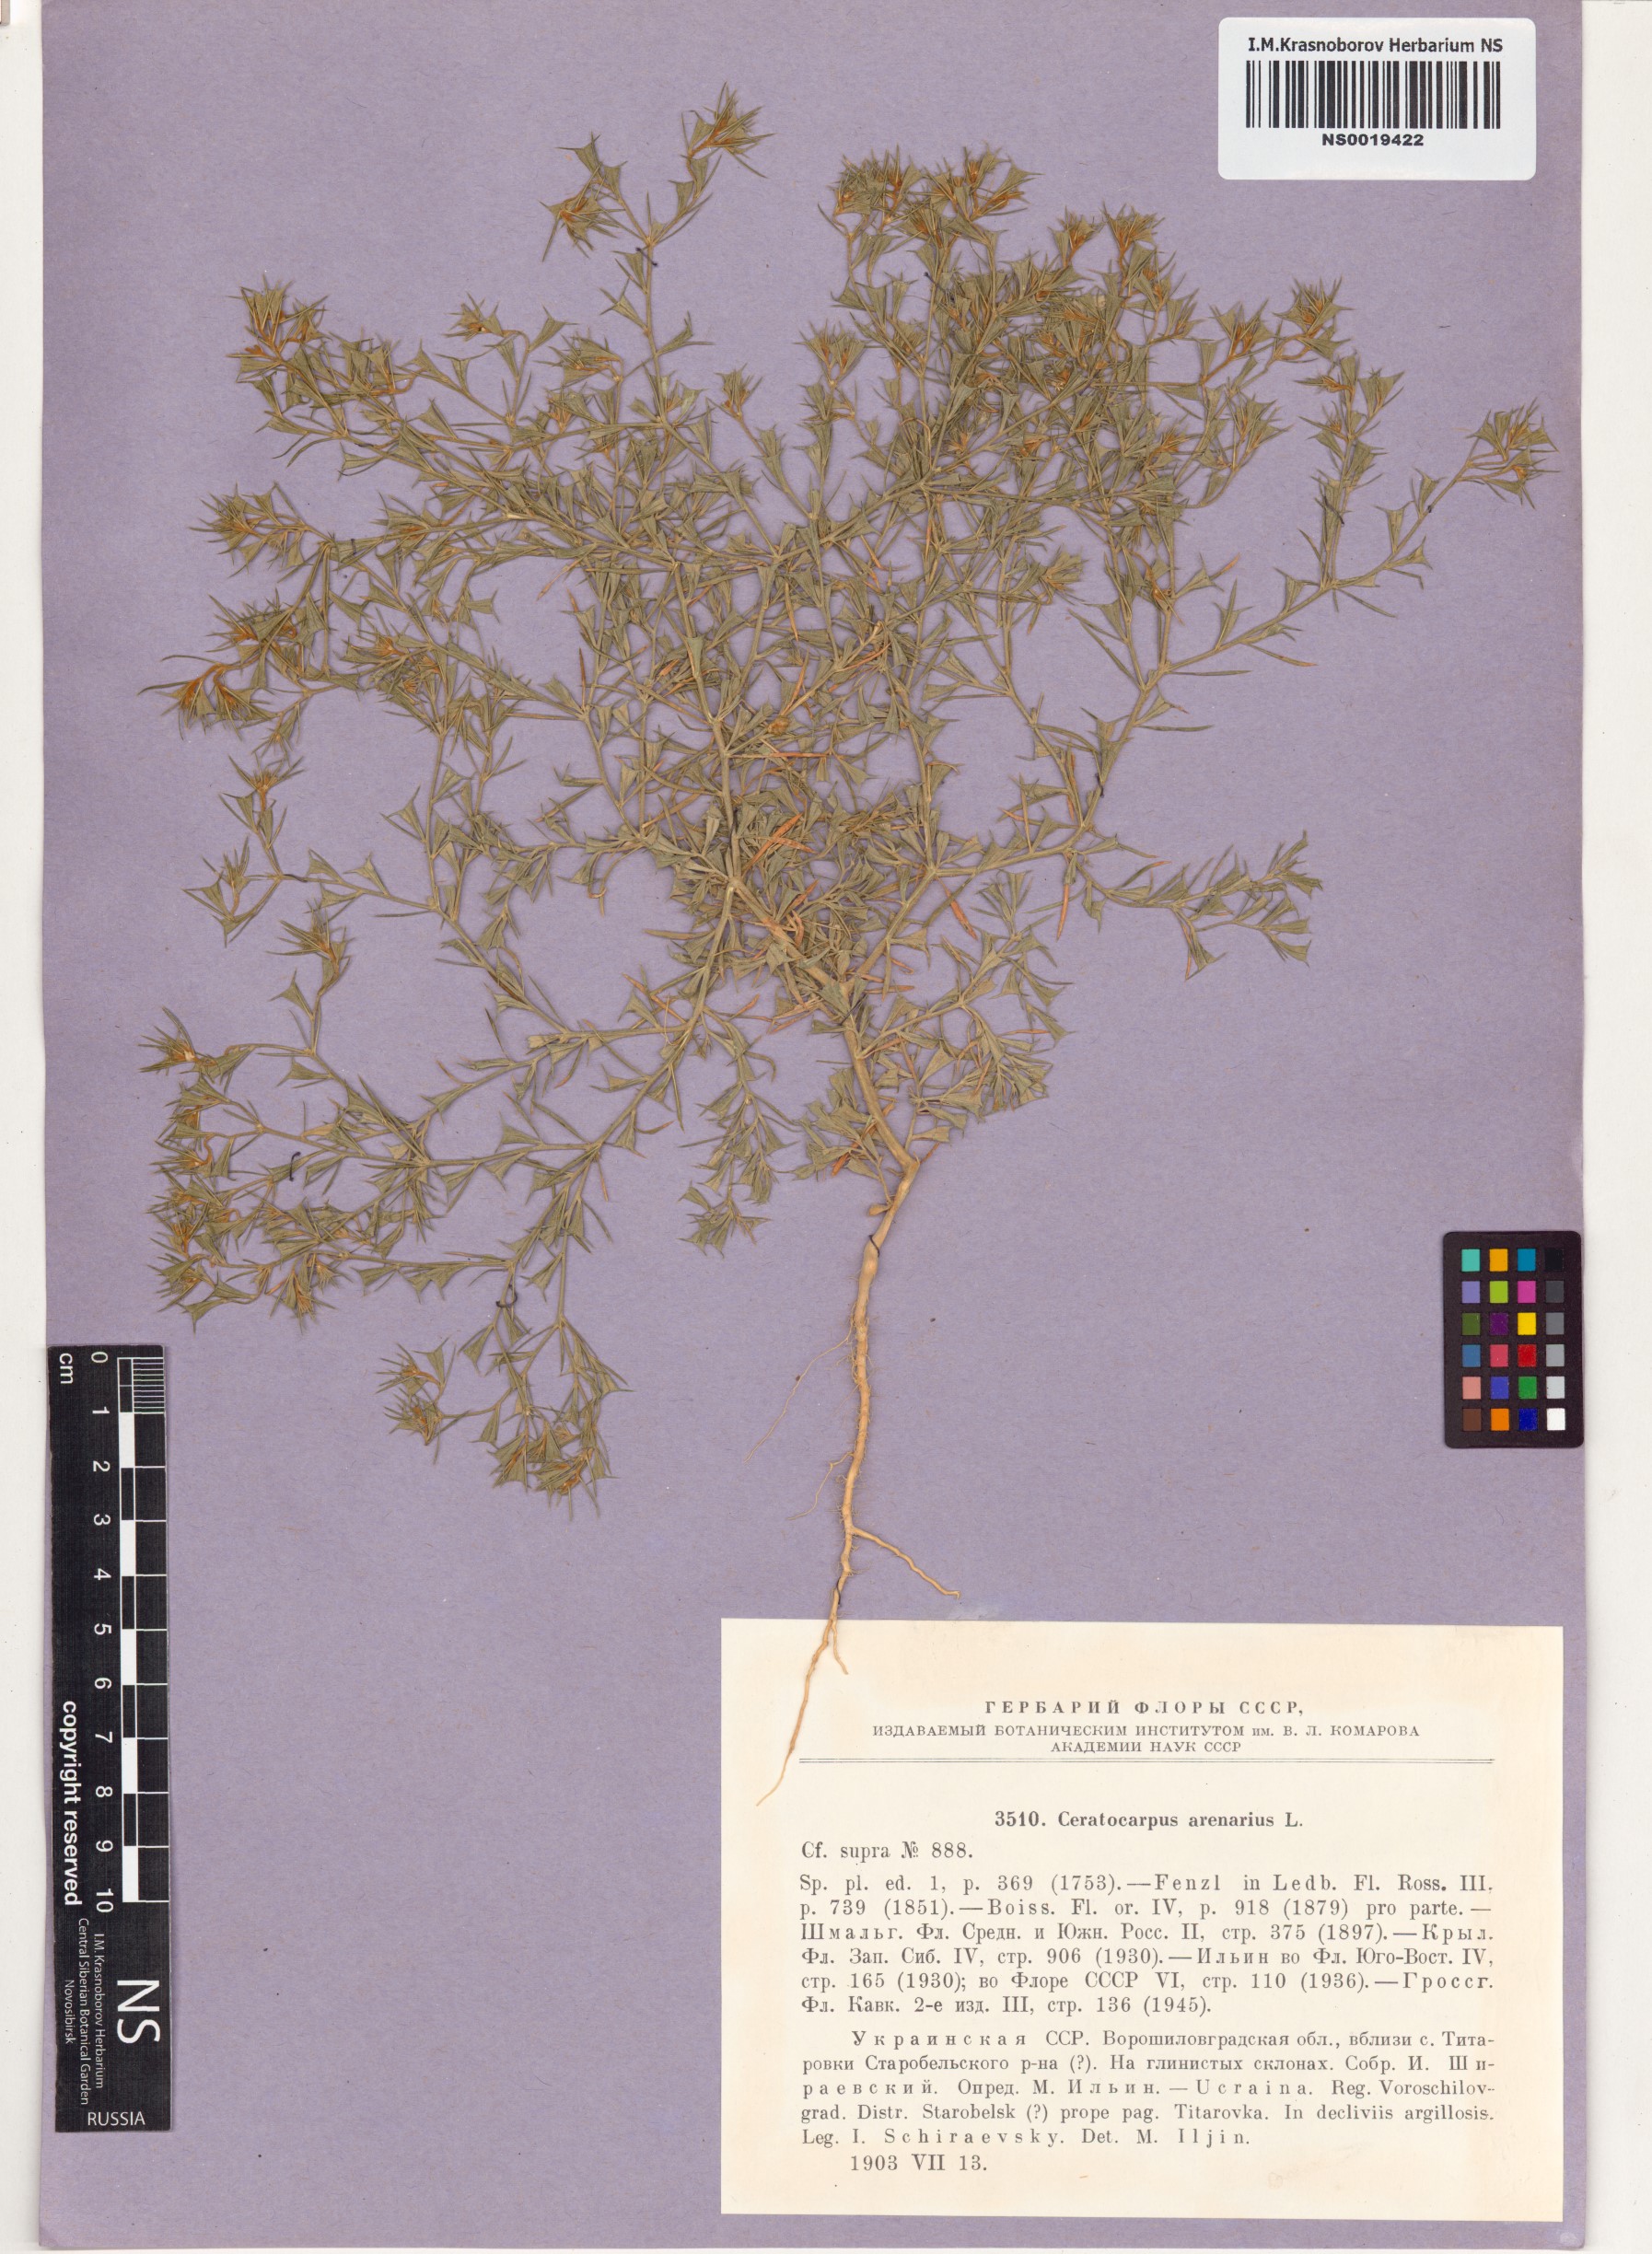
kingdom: Plantae
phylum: Tracheophyta
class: Magnoliopsida
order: Caryophyllales
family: Amaranthaceae
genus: Ceratocarpus
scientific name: Ceratocarpus arenarius
